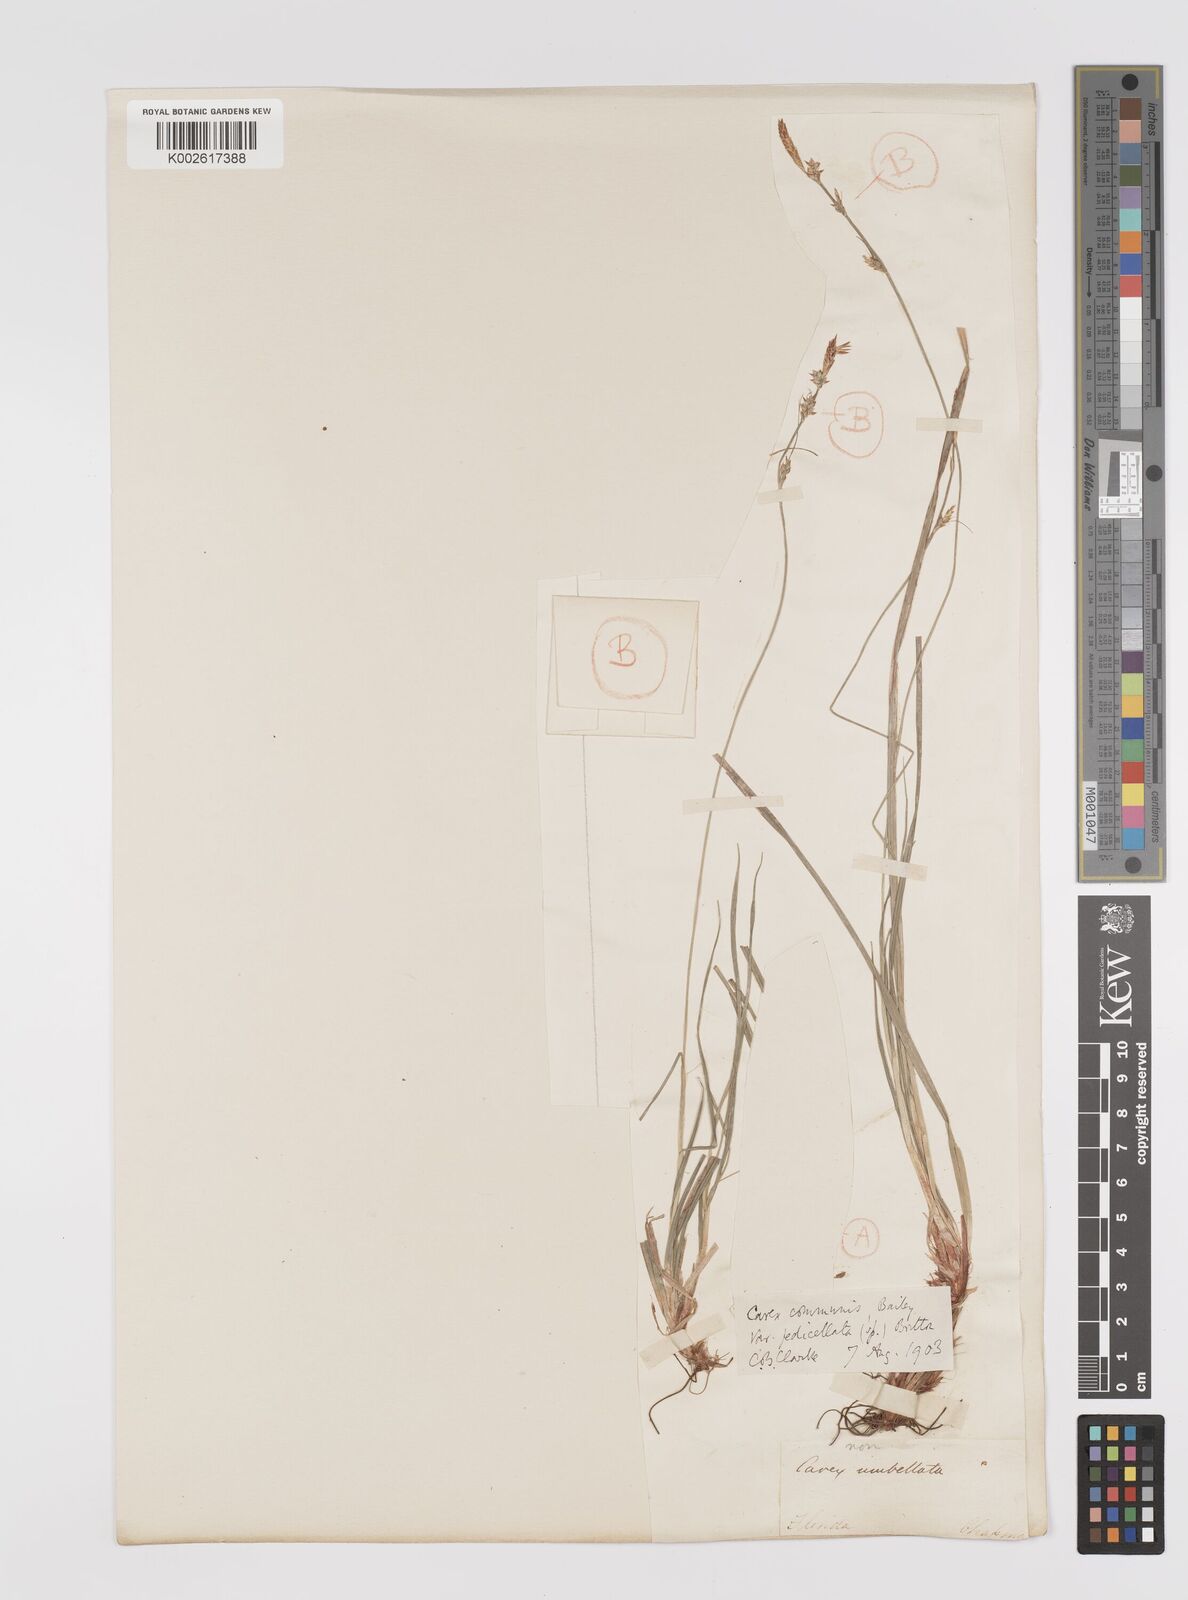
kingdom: Plantae
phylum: Tracheophyta
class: Liliopsida
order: Poales
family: Cyperaceae
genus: Carex
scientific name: Carex communis
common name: Colonial oak sedge
